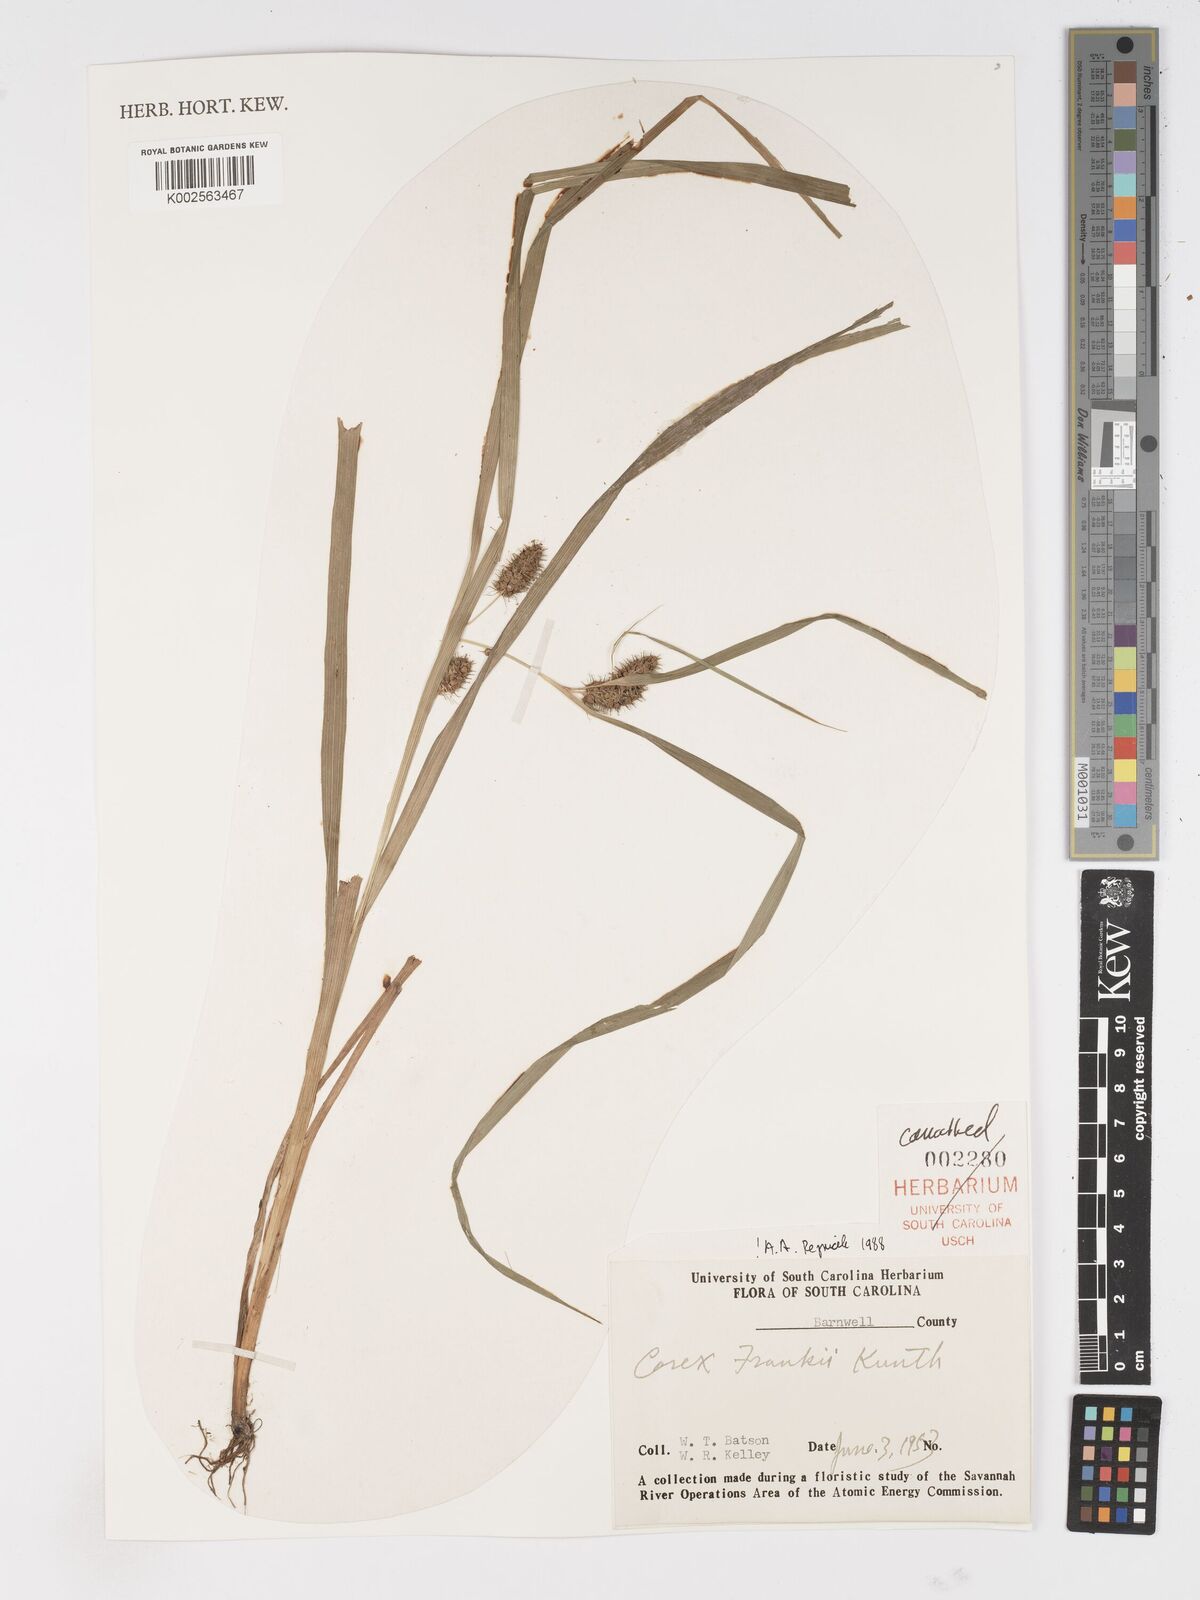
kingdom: Plantae
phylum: Tracheophyta
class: Liliopsida
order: Poales
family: Cyperaceae
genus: Carex
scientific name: Carex frankii
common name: Frank's sedge
